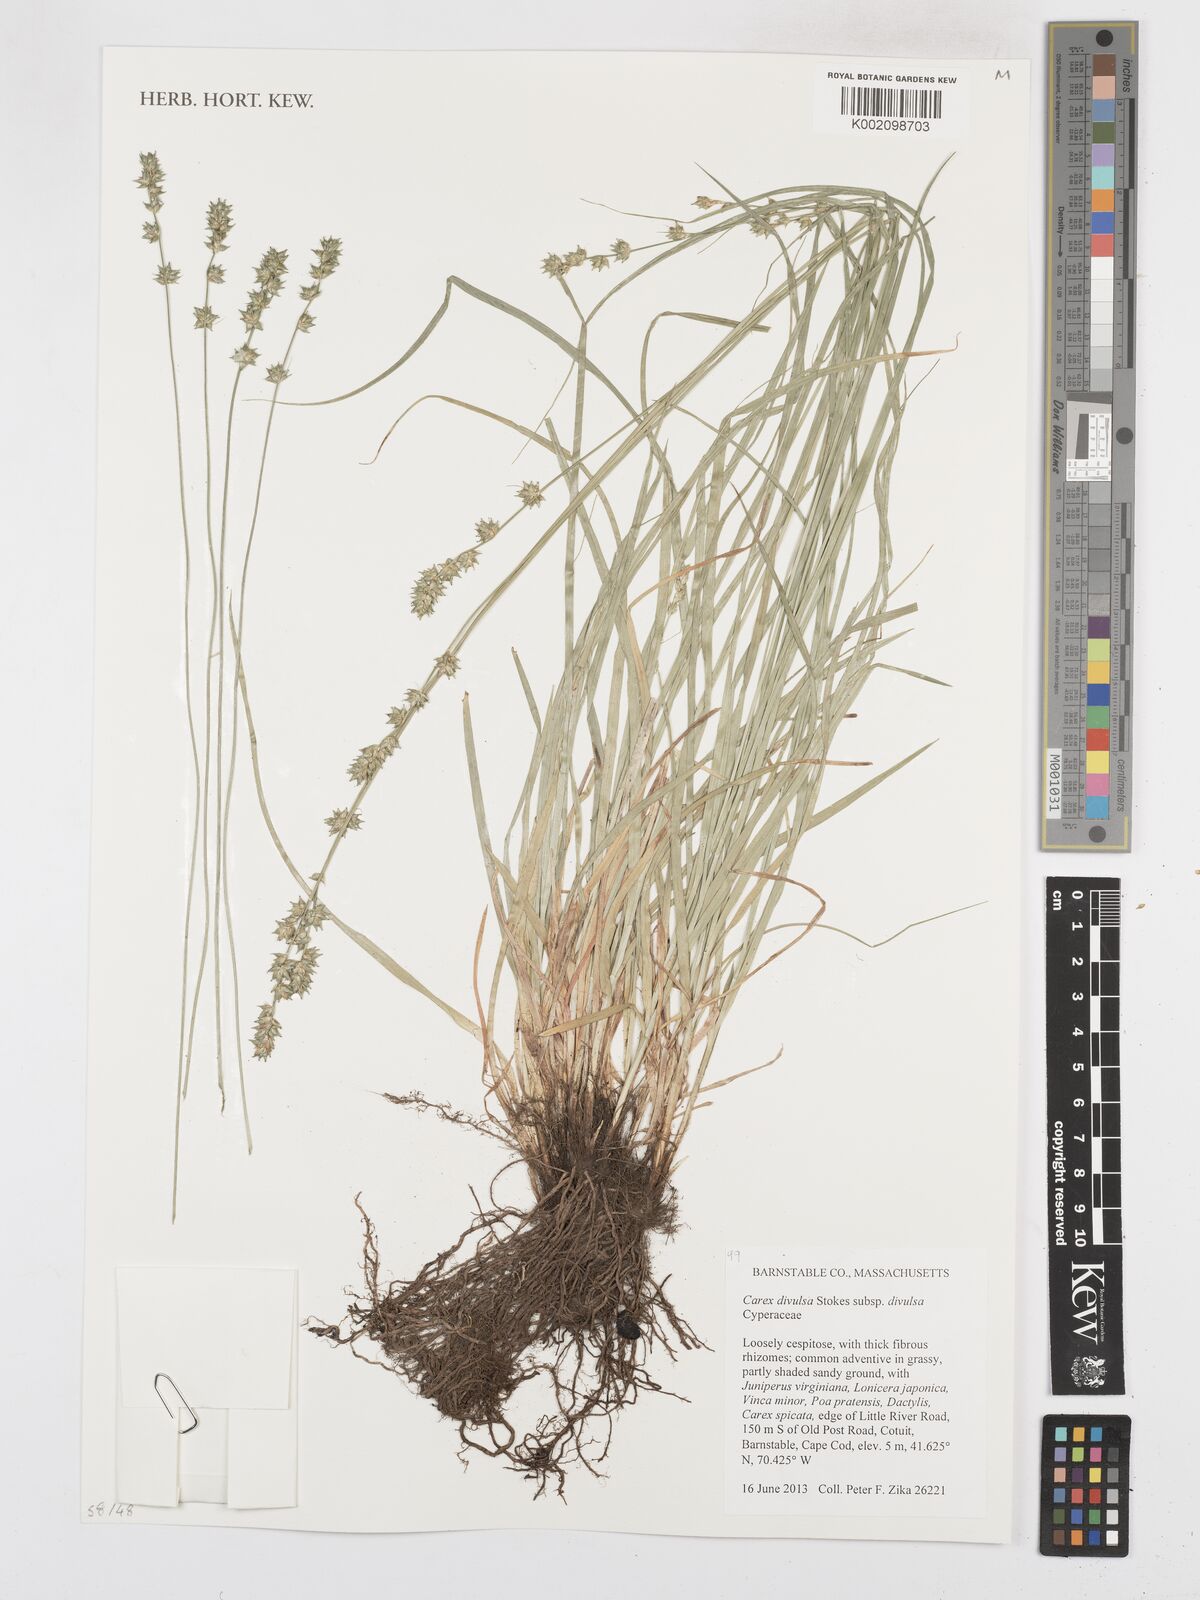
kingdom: Plantae
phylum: Tracheophyta
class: Liliopsida
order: Poales
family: Cyperaceae
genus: Carex
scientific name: Carex divulsa
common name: Grassland sedge
